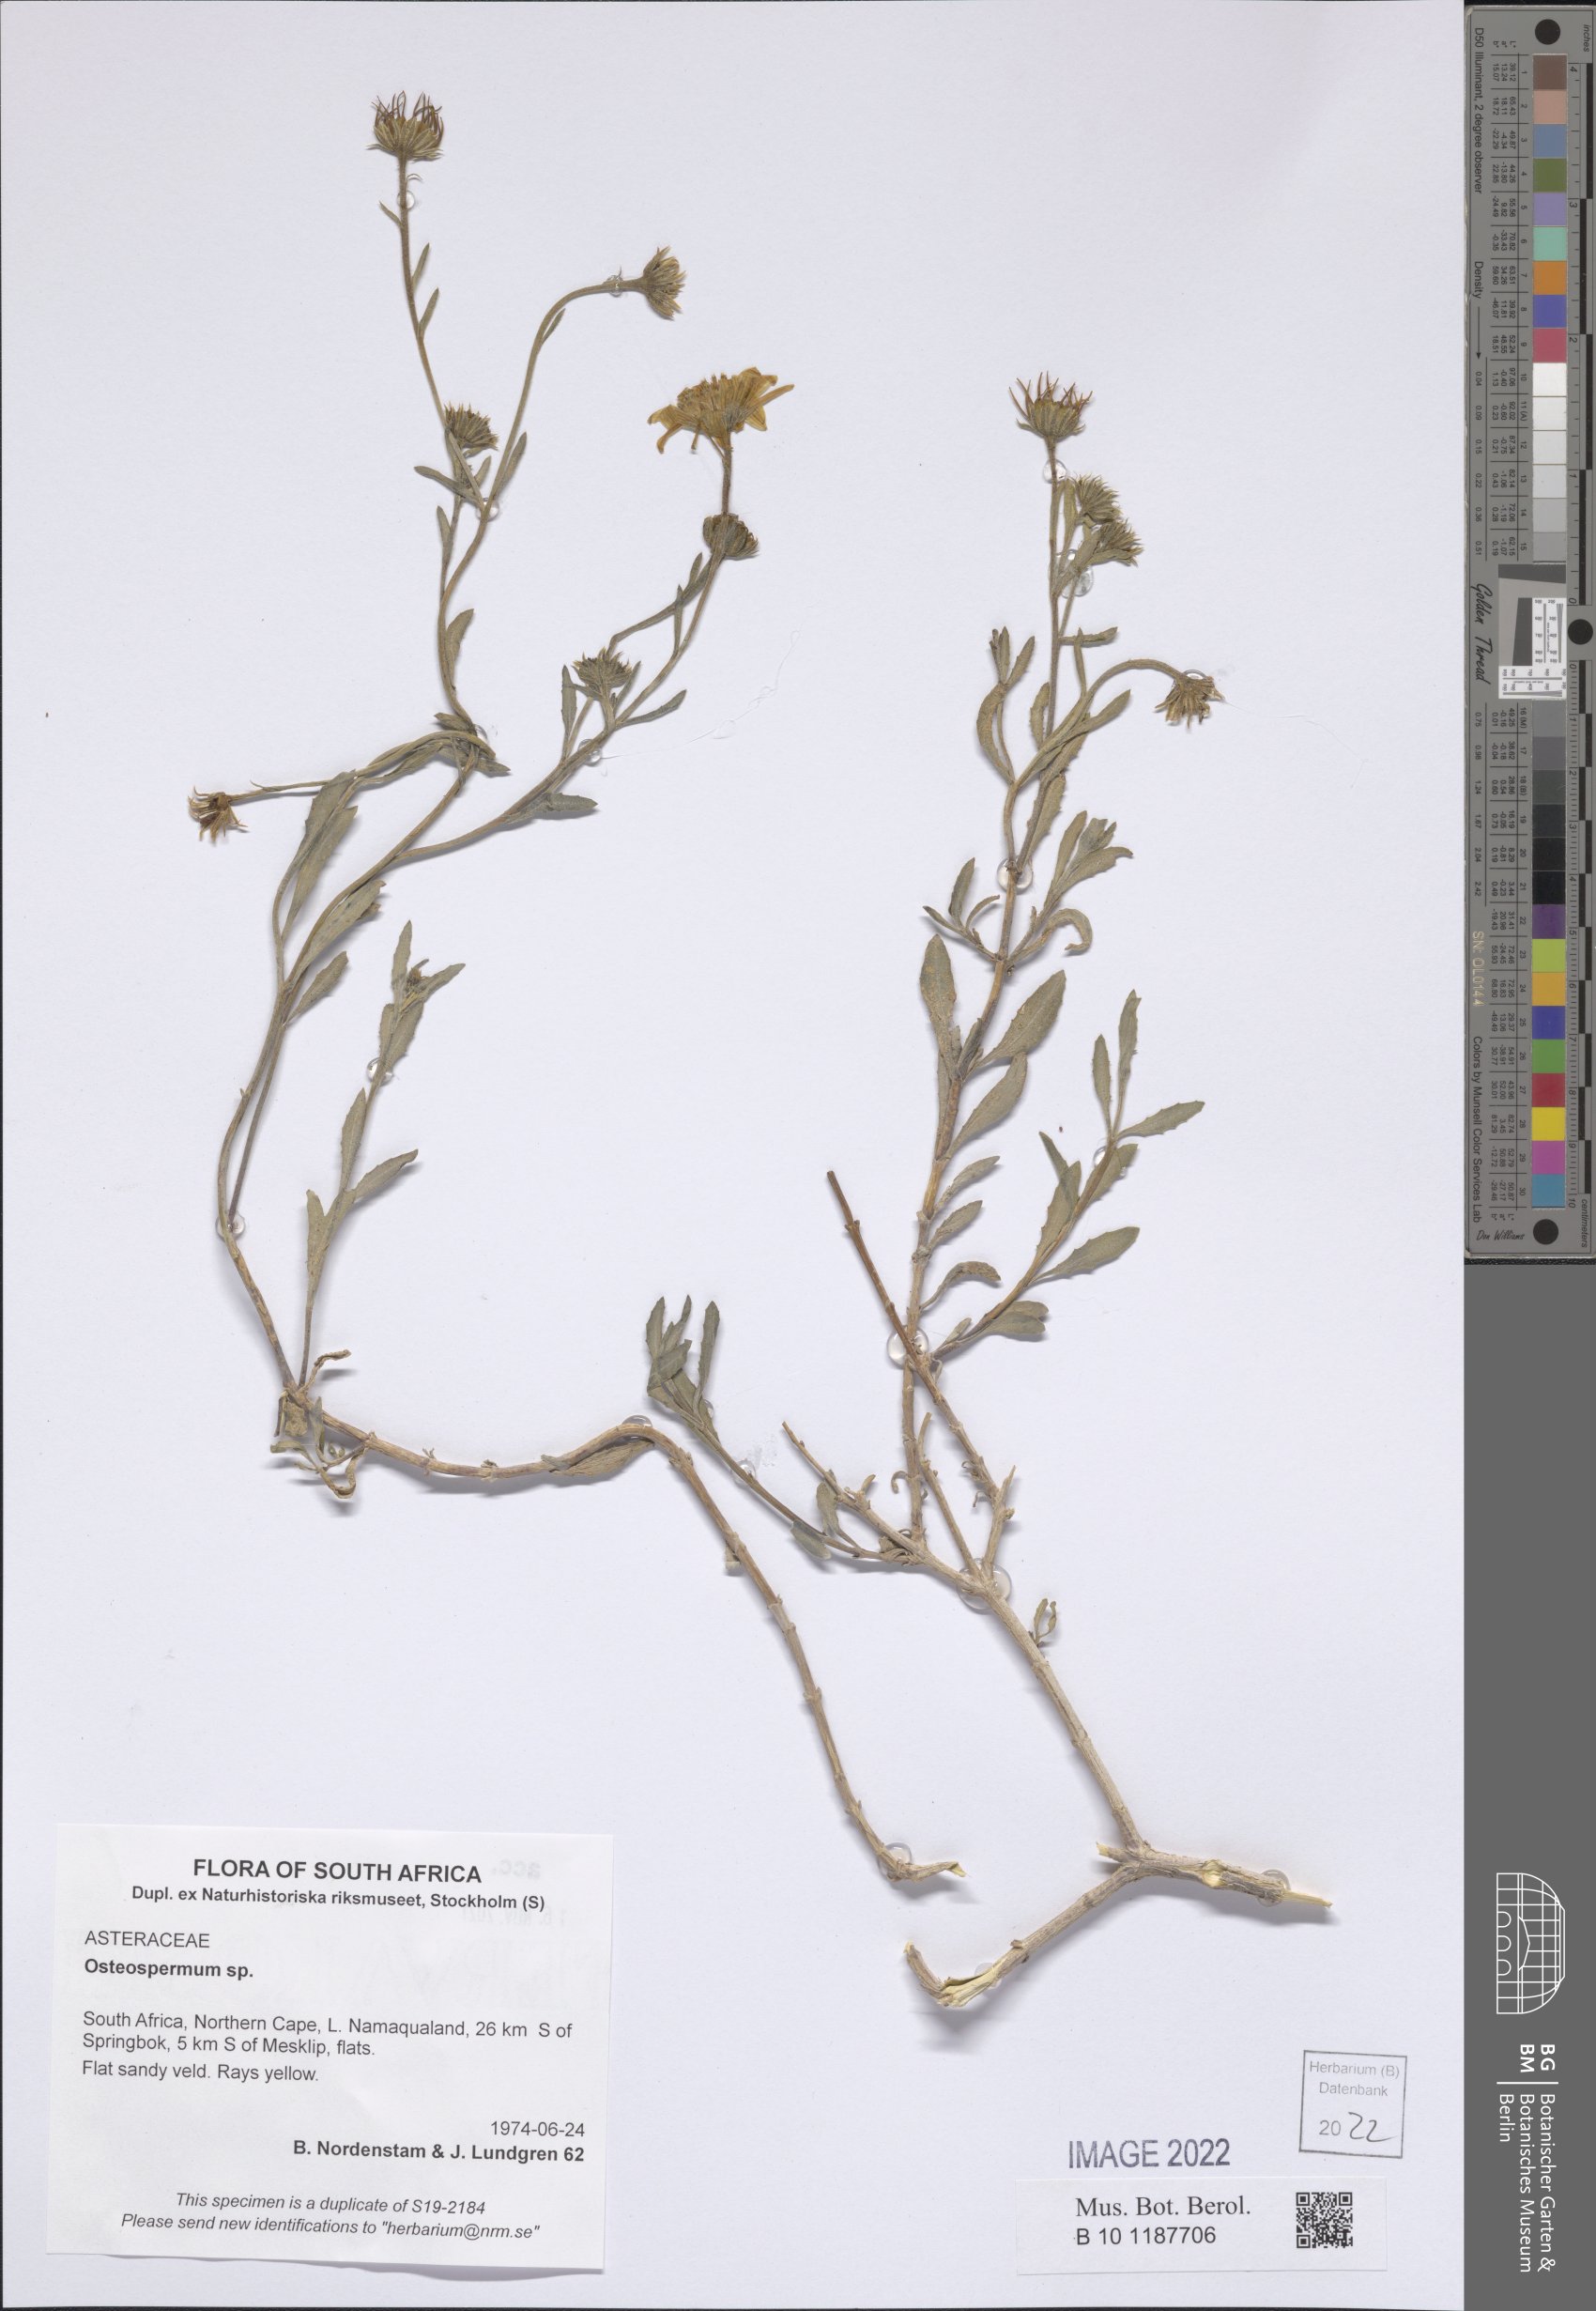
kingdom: Plantae
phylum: Tracheophyta
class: Magnoliopsida
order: Asterales
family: Asteraceae
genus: Osteospermum
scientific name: Osteospermum
